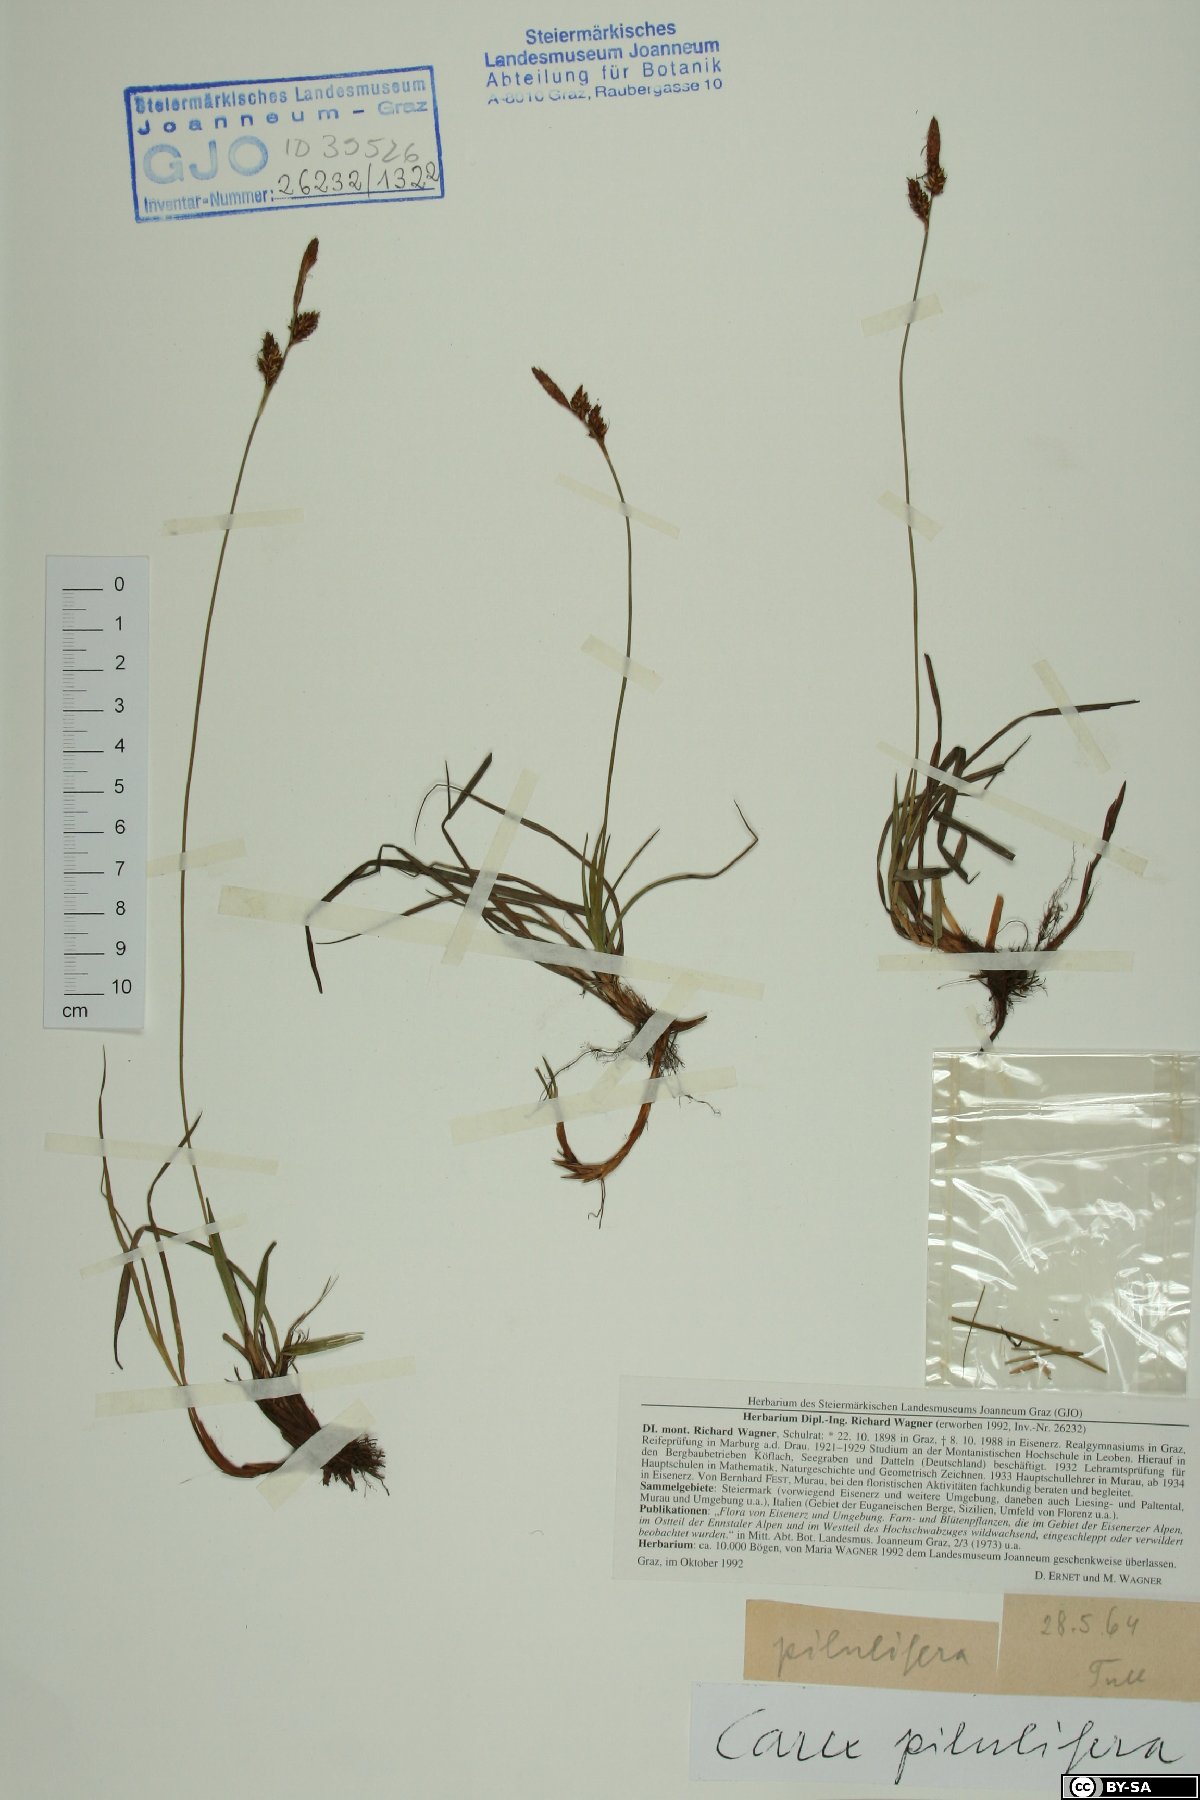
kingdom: Plantae
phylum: Tracheophyta
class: Liliopsida
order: Poales
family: Cyperaceae
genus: Carex
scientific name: Carex pilulifera
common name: Pill sedge
